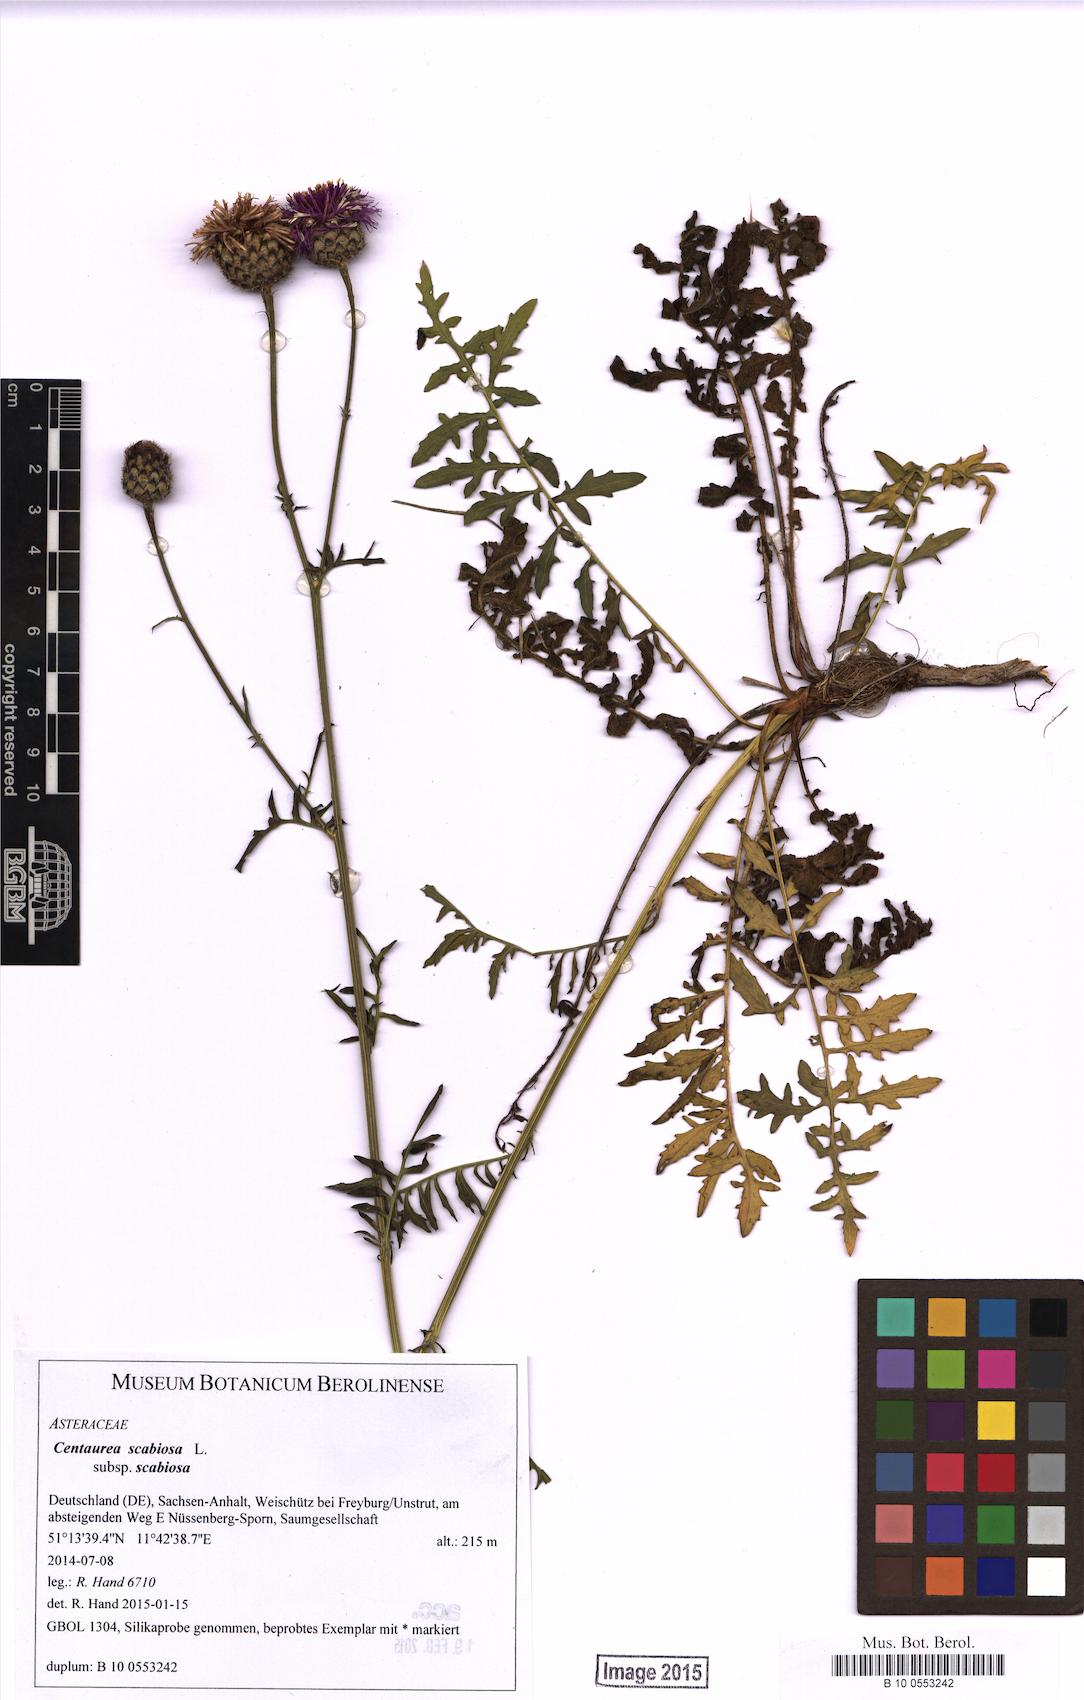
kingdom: Plantae
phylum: Tracheophyta
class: Magnoliopsida
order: Asterales
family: Asteraceae
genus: Centaurea
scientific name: Centaurea scabiosa
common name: Greater knapweed
